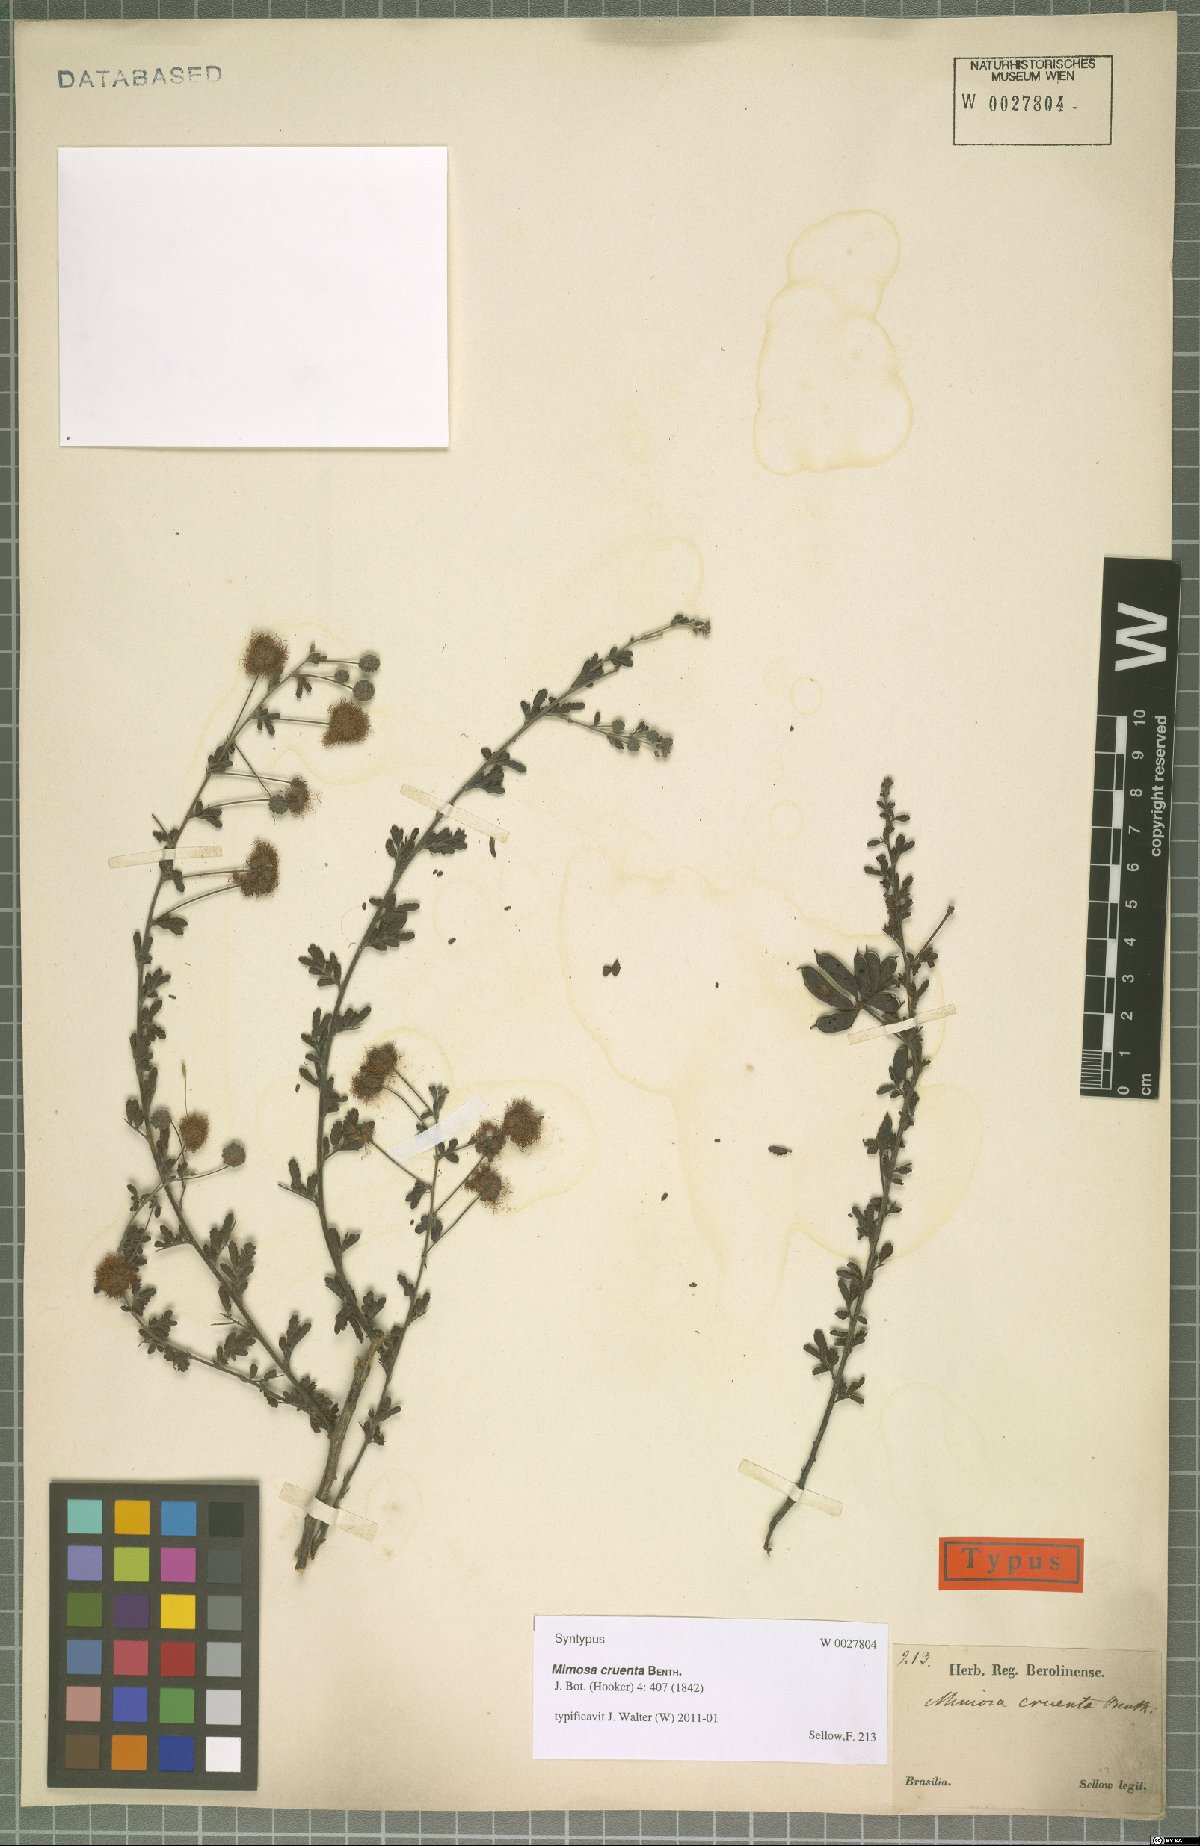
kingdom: Plantae
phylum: Tracheophyta
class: Magnoliopsida
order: Fabales
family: Fabaceae
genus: Mimosa
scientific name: Mimosa cruenta
